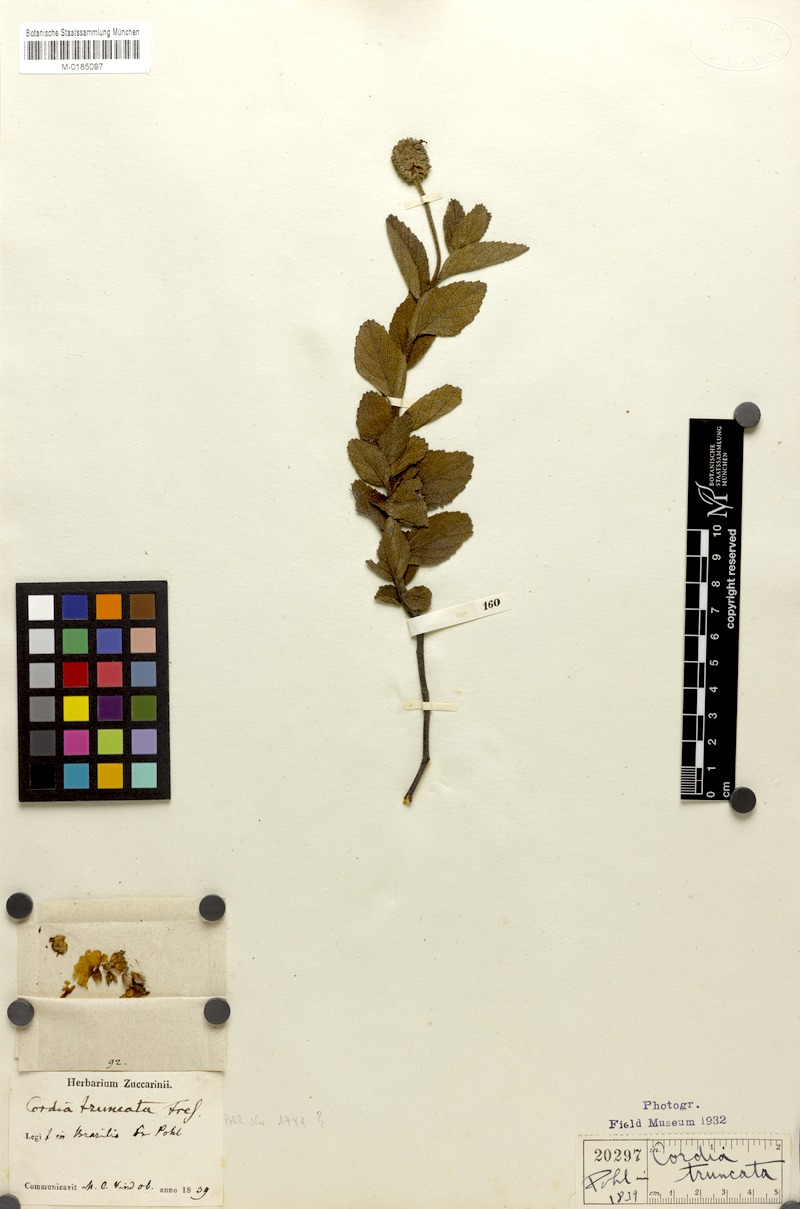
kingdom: Plantae
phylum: Tracheophyta
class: Magnoliopsida
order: Boraginales
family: Cordiaceae
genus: Varronia
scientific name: Varronia truncata
